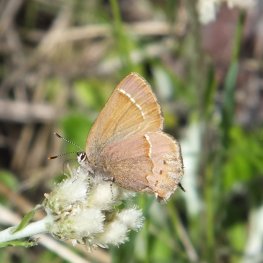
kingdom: Animalia
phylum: Arthropoda
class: Insecta
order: Lepidoptera
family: Lycaenidae
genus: Mitoura
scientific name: Mitoura nelsoni
